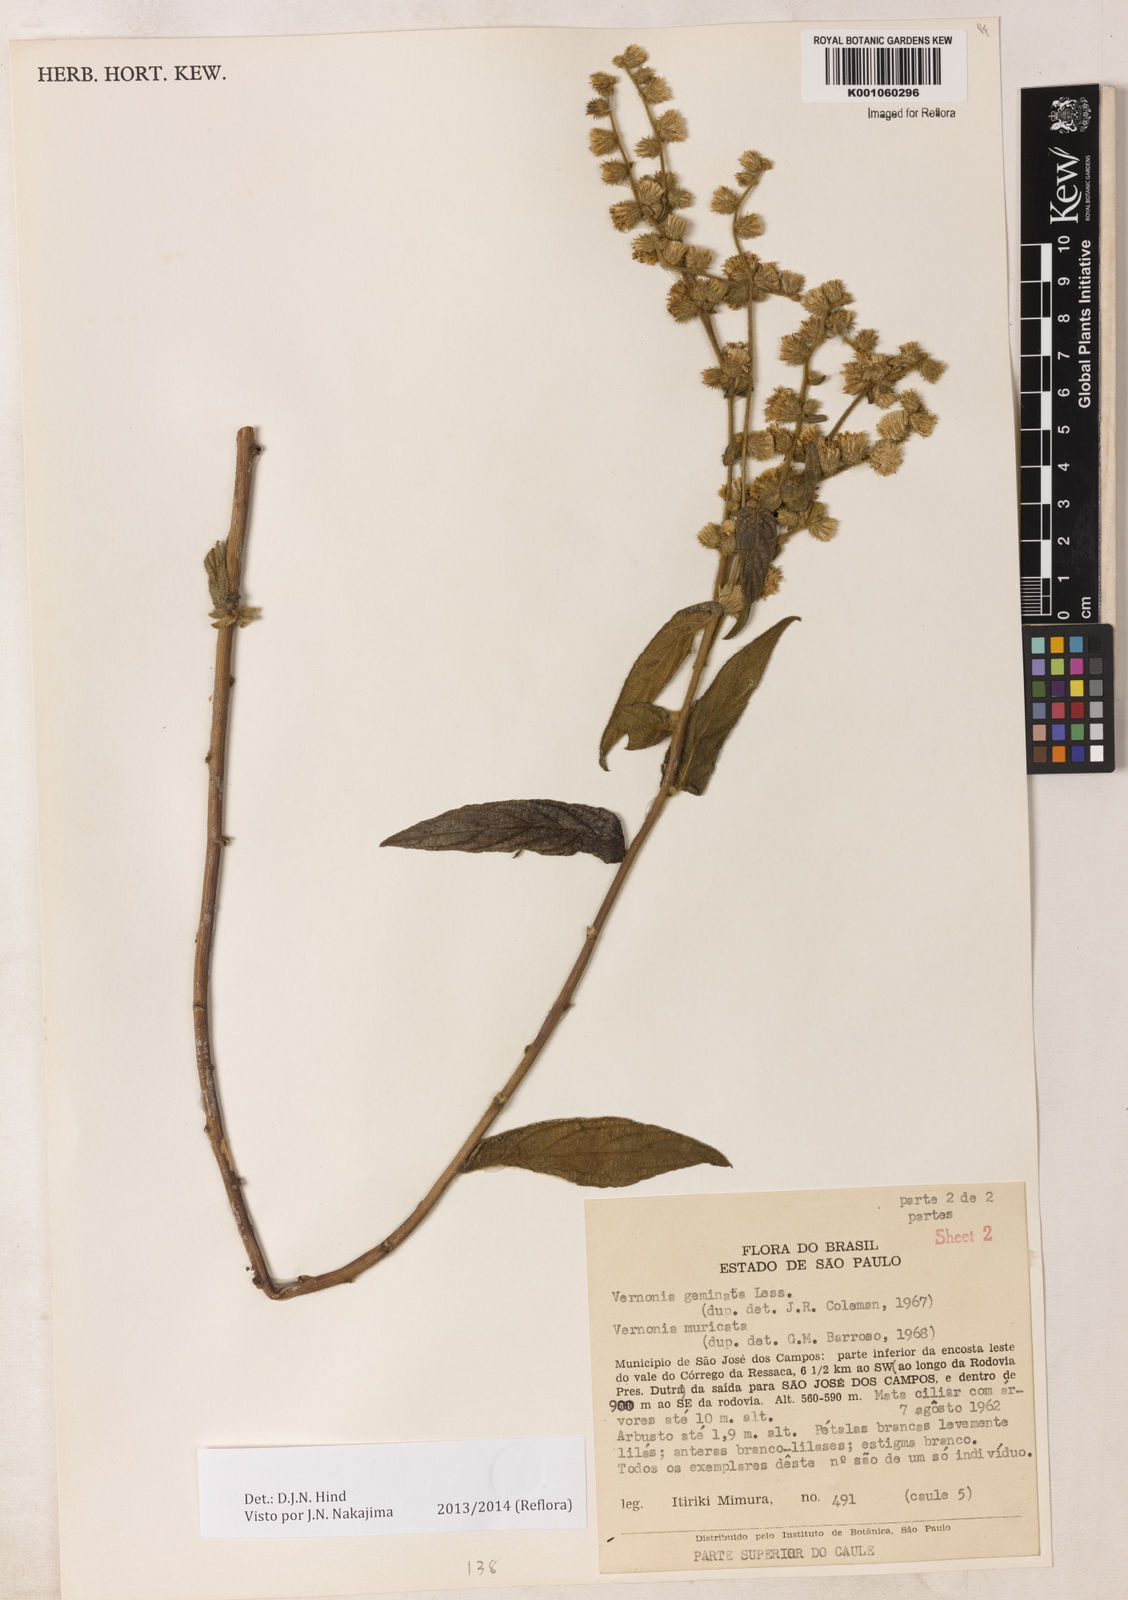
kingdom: Plantae
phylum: Tracheophyta
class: Magnoliopsida
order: Asterales
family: Asteraceae
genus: Lepidaploa
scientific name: Lepidaploa canescens
